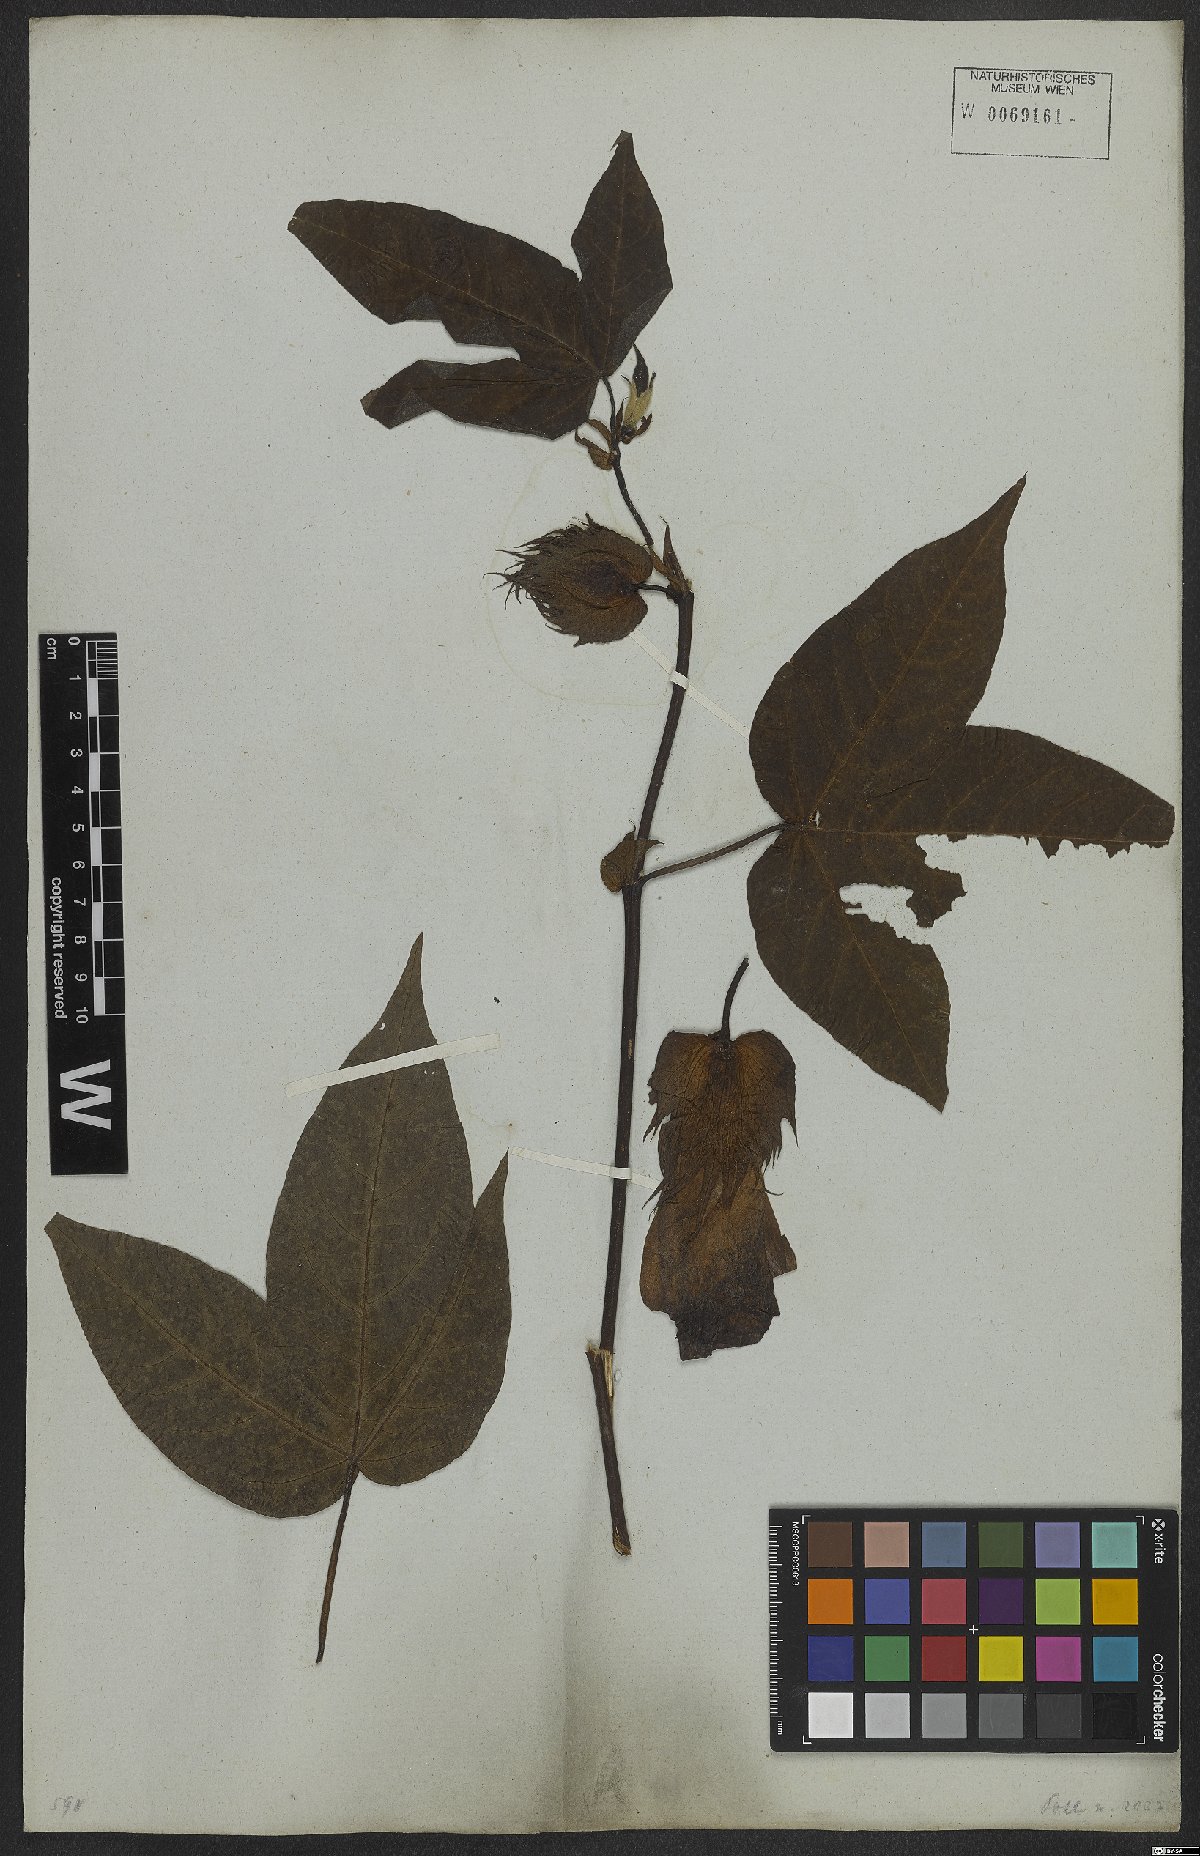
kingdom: Plantae
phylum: Tracheophyta
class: Magnoliopsida
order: Malvales
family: Malvaceae
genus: Gossypium
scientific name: Gossypium hirsutum
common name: Cotton
